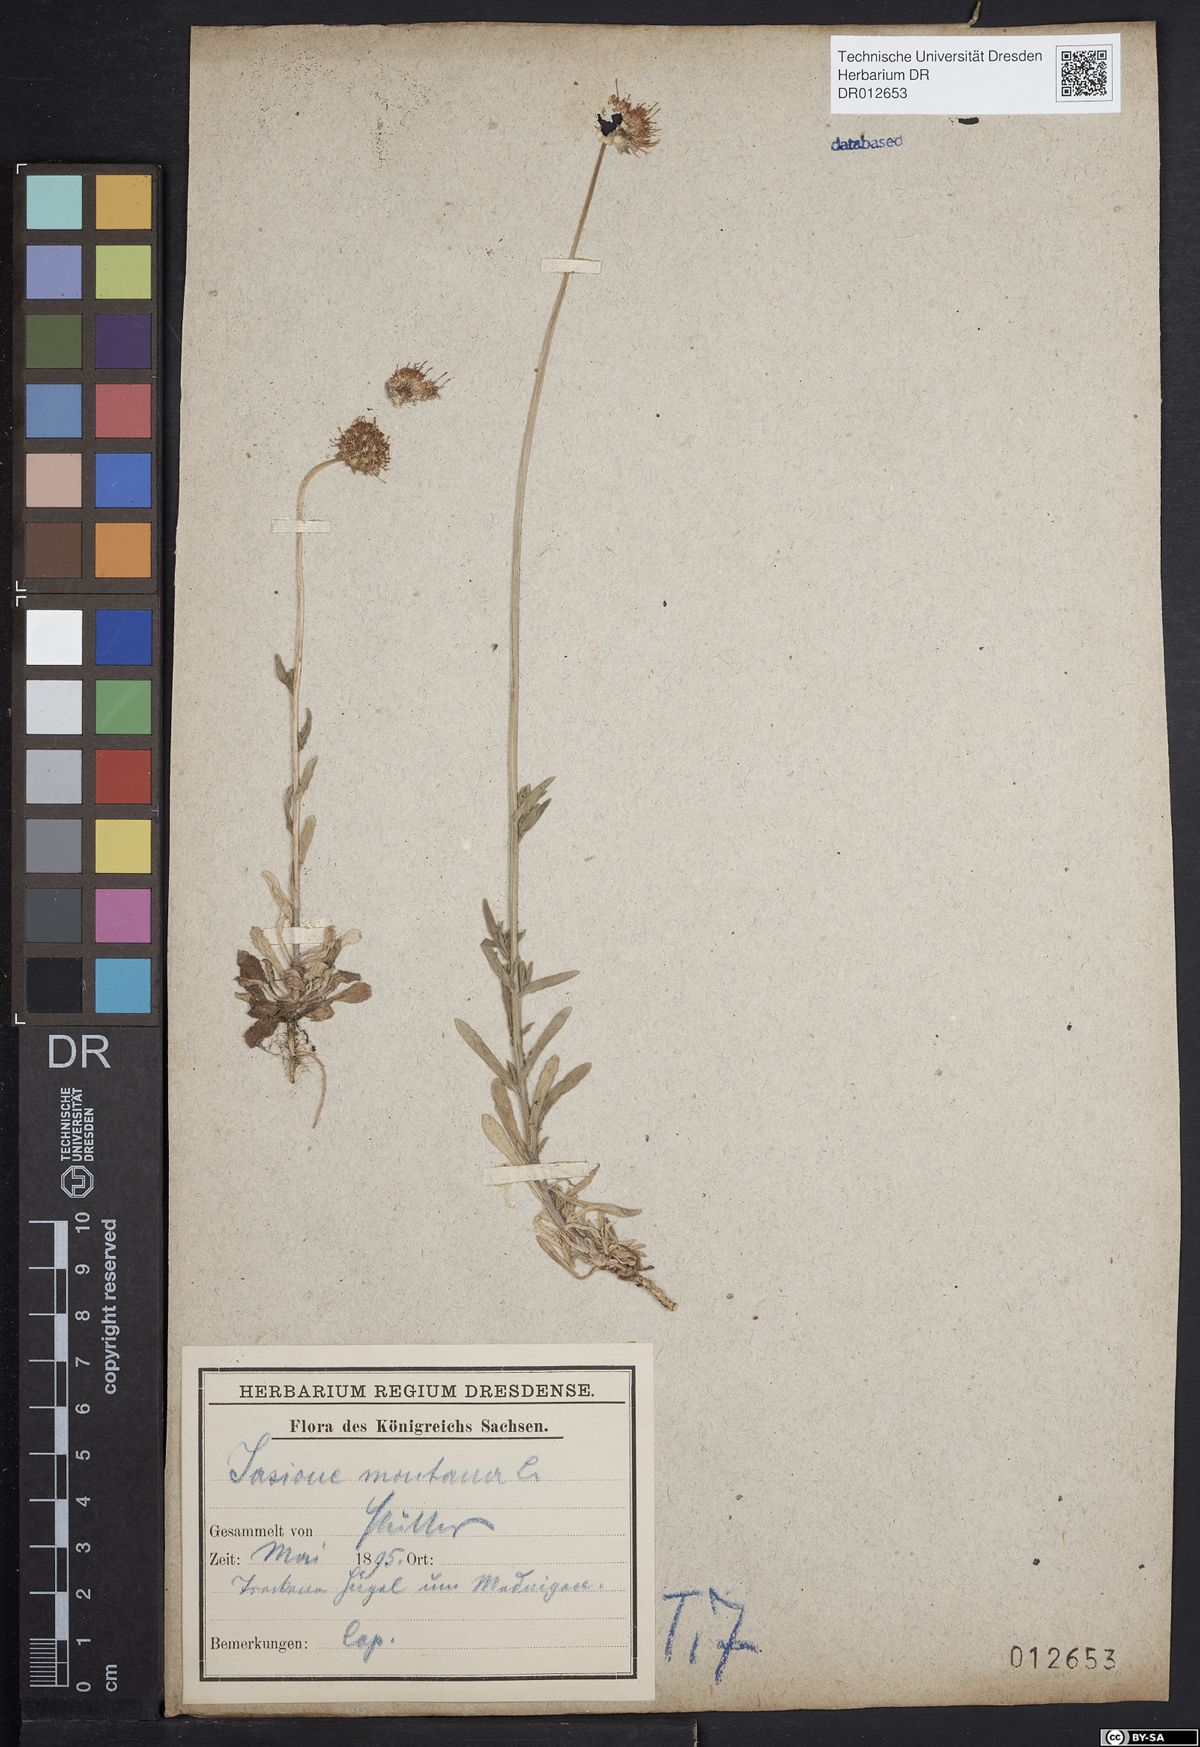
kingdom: Plantae
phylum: Tracheophyta
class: Magnoliopsida
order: Asterales
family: Campanulaceae
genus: Jasione
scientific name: Jasione montana
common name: Sheep's-bit
